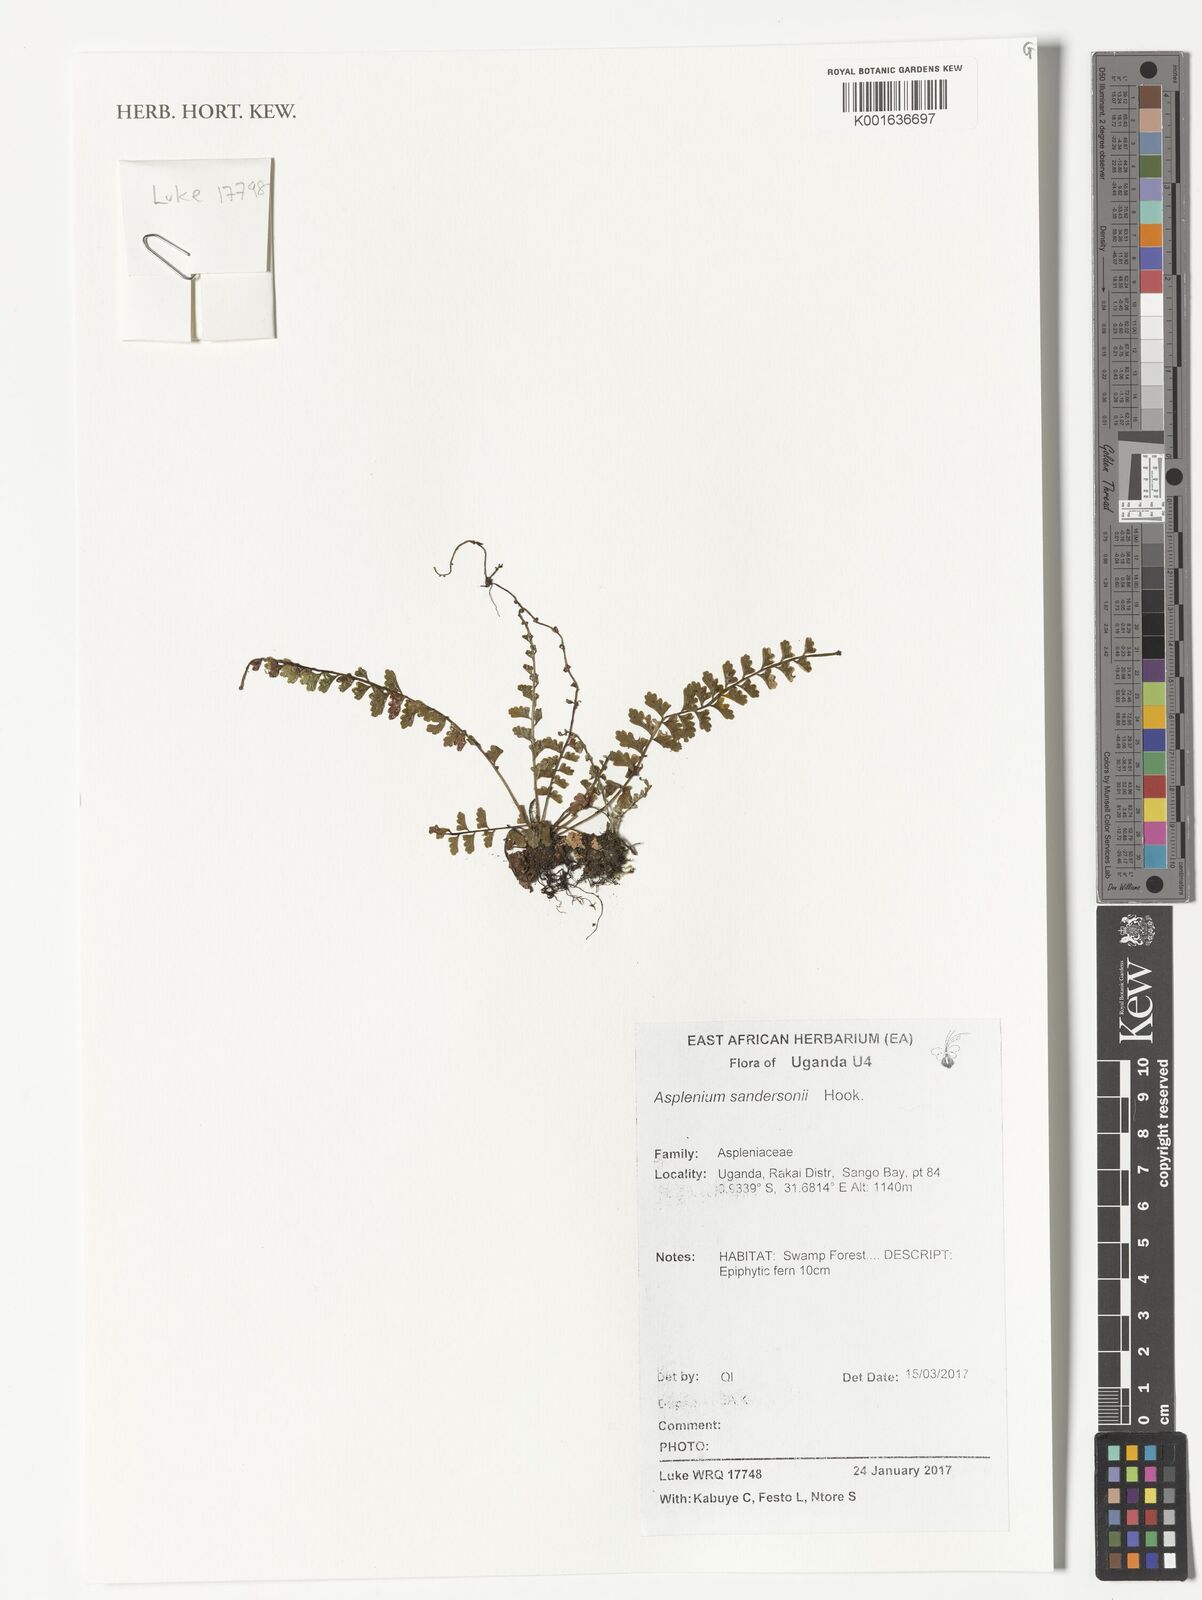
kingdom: Plantae
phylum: Tracheophyta
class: Polypodiopsida
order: Polypodiales
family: Aspleniaceae
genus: Asplenium
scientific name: Asplenium sandersonii
